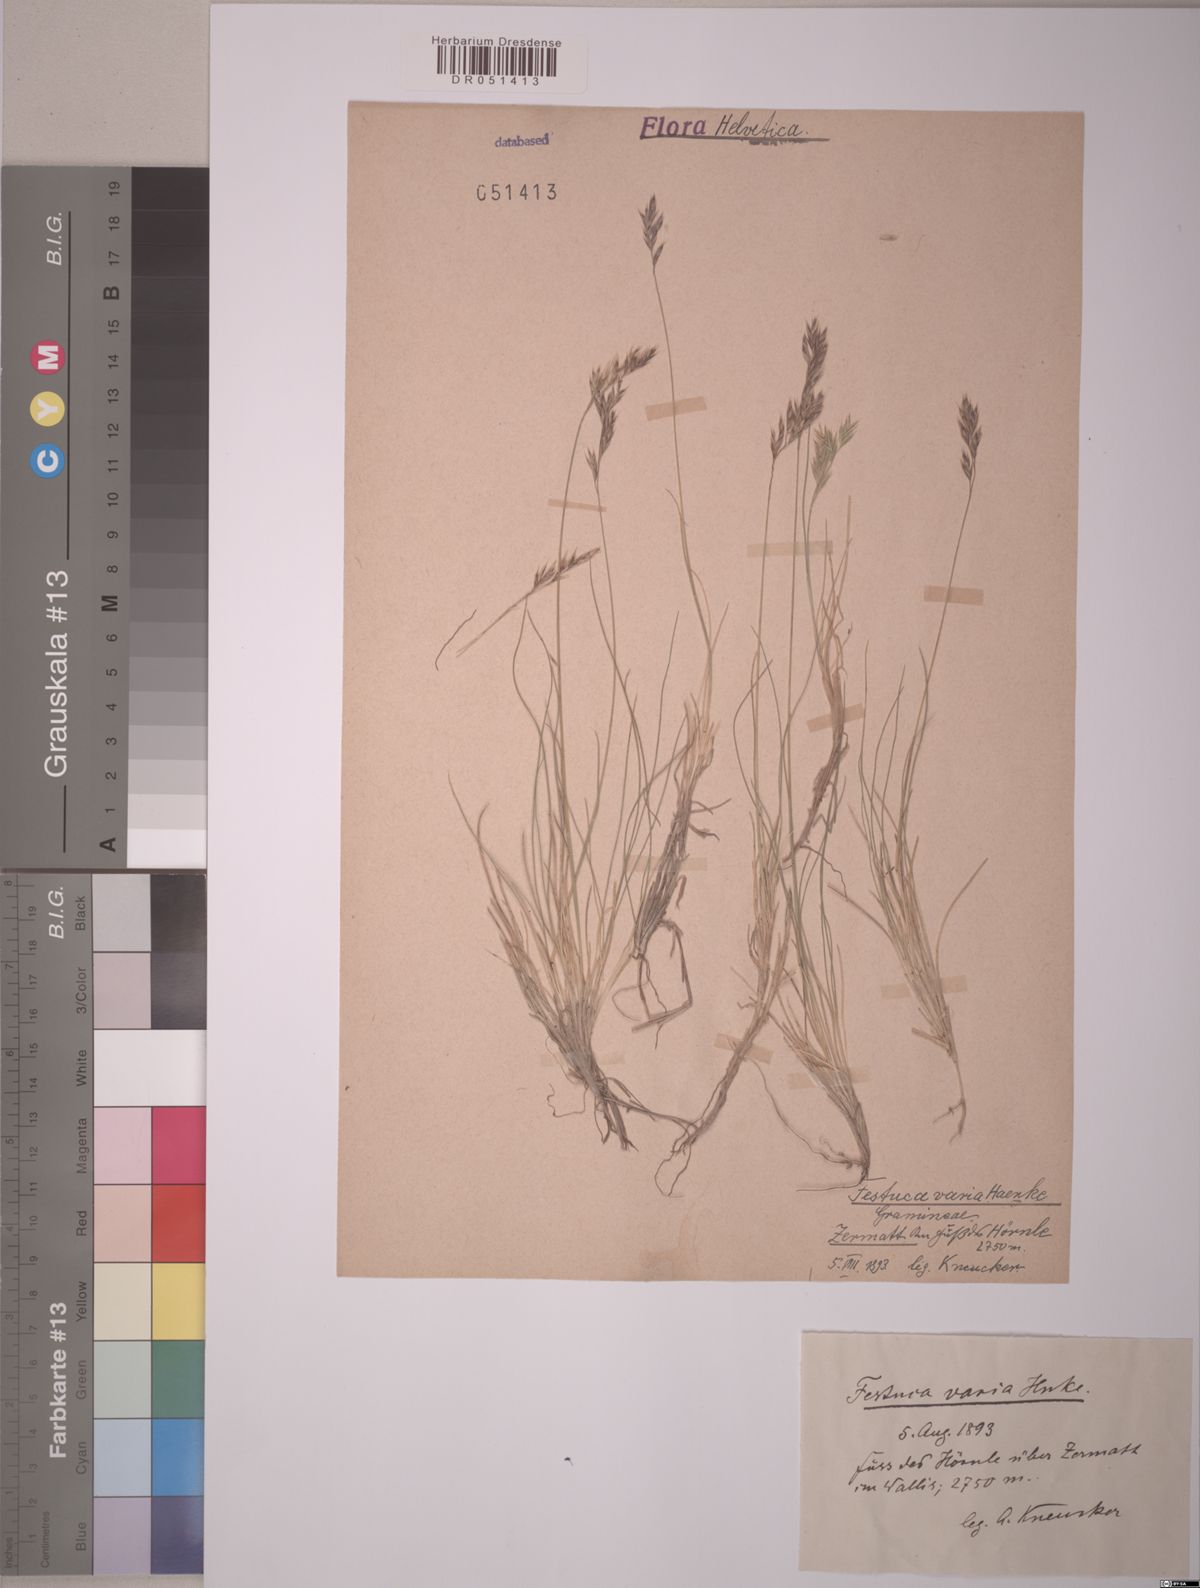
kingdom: Plantae
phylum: Tracheophyta
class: Liliopsida
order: Poales
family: Poaceae
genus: Festuca
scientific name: Festuca varia
